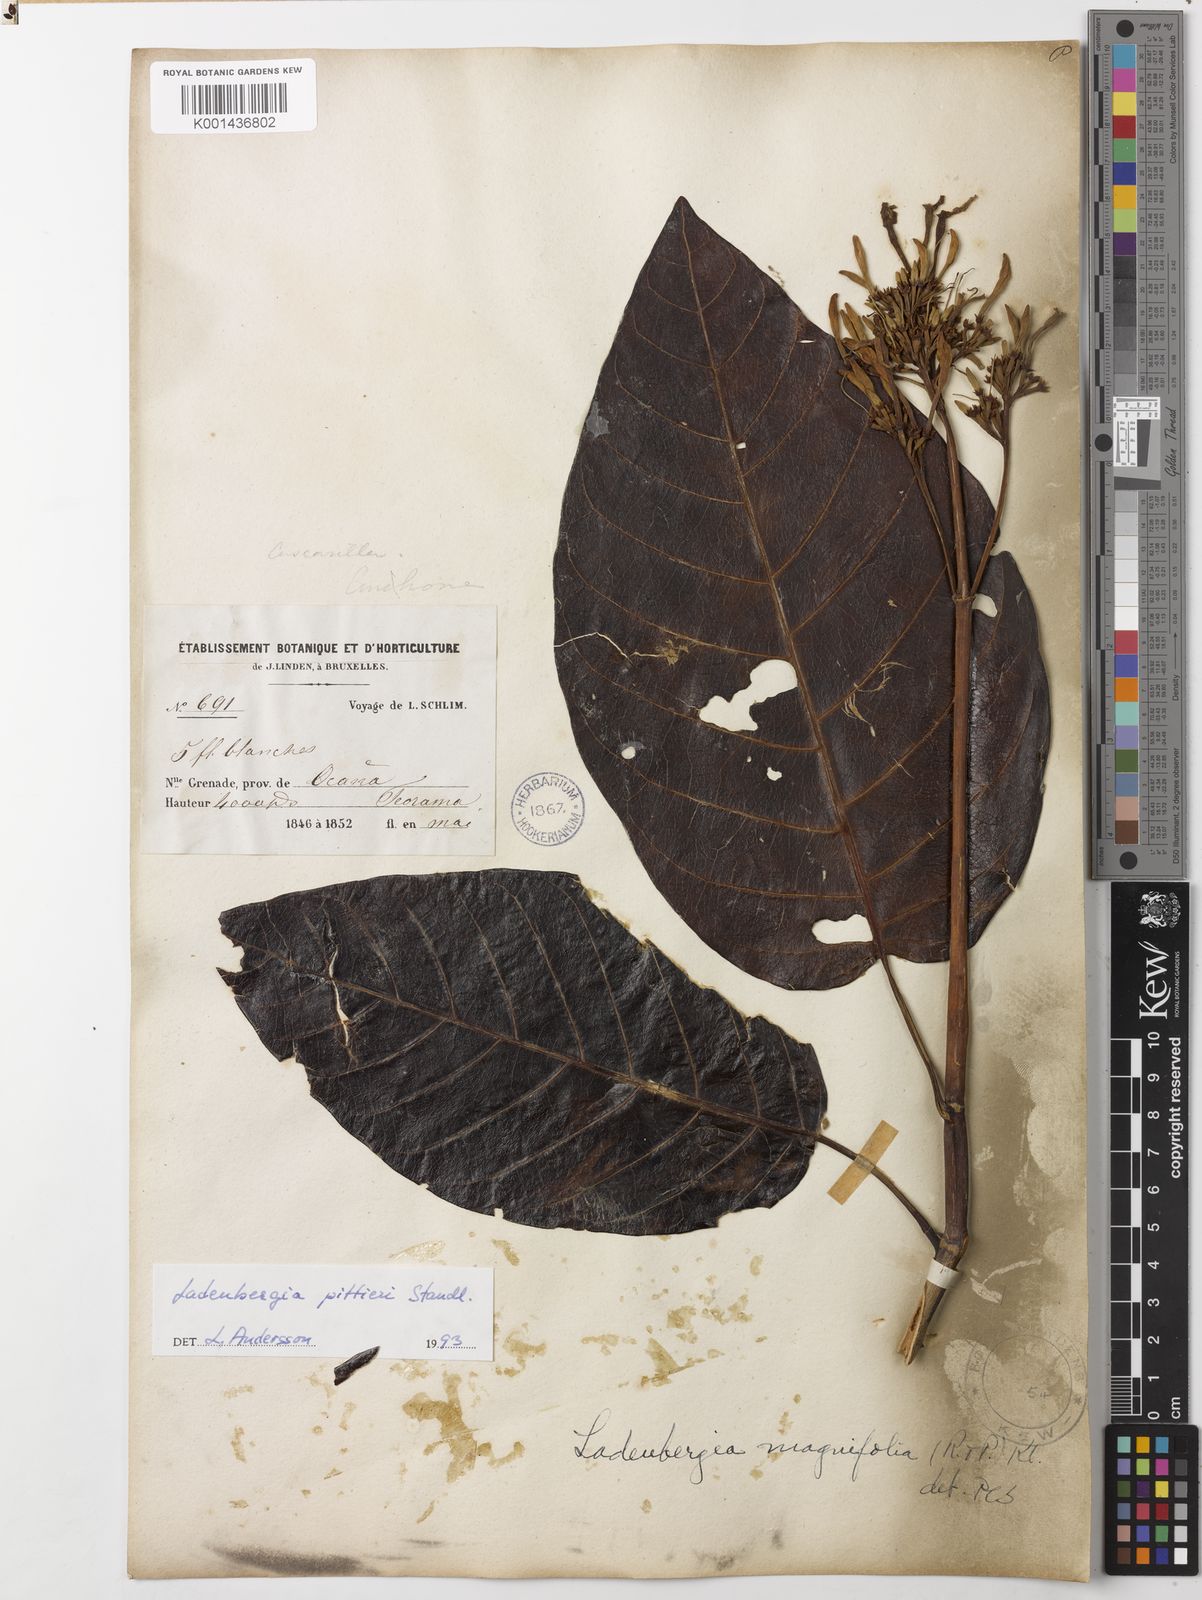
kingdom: Plantae
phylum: Tracheophyta
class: Magnoliopsida
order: Gentianales
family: Rubiaceae
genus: Ladenbergia
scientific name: Ladenbergia pittieri
